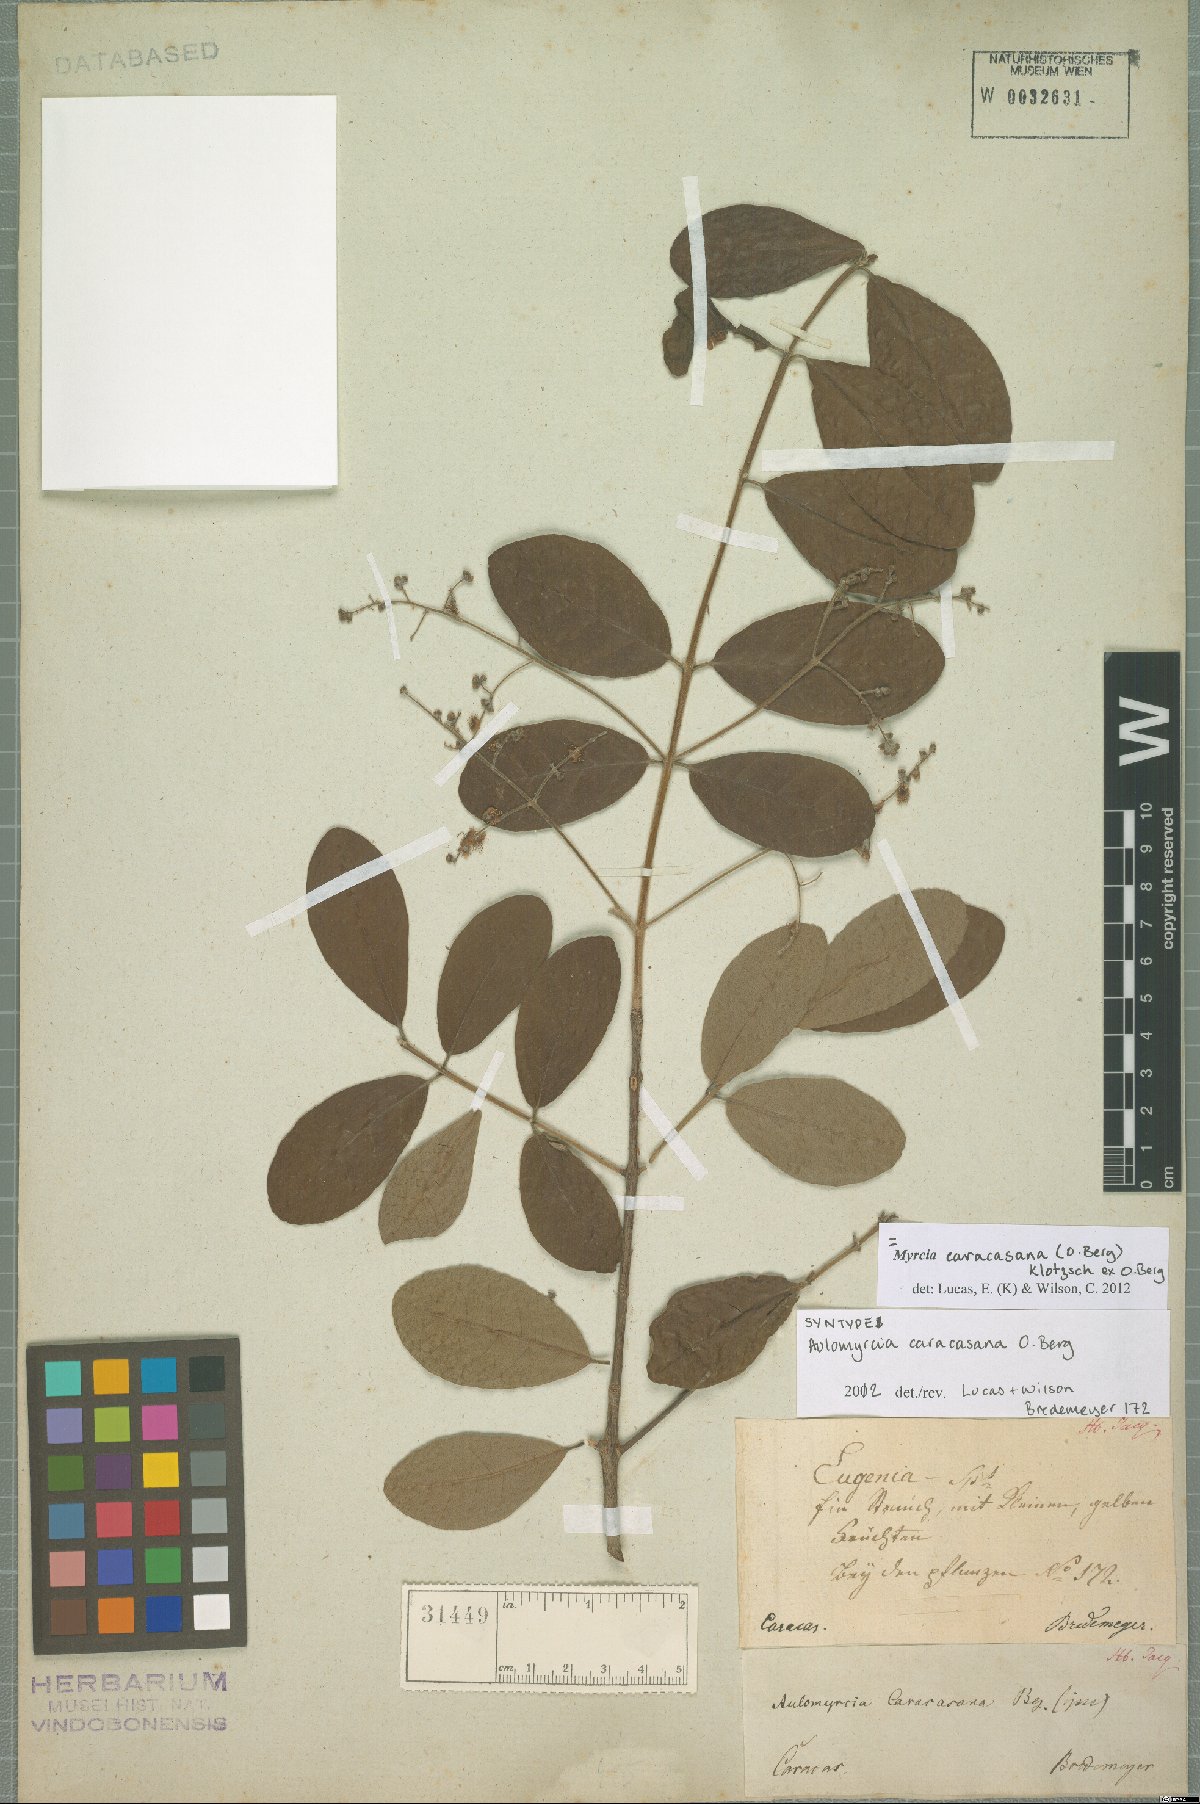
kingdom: Plantae
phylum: Tracheophyta
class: Magnoliopsida
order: Myrtales
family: Myrtaceae
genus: Myrcia
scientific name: Myrcia caracasana
